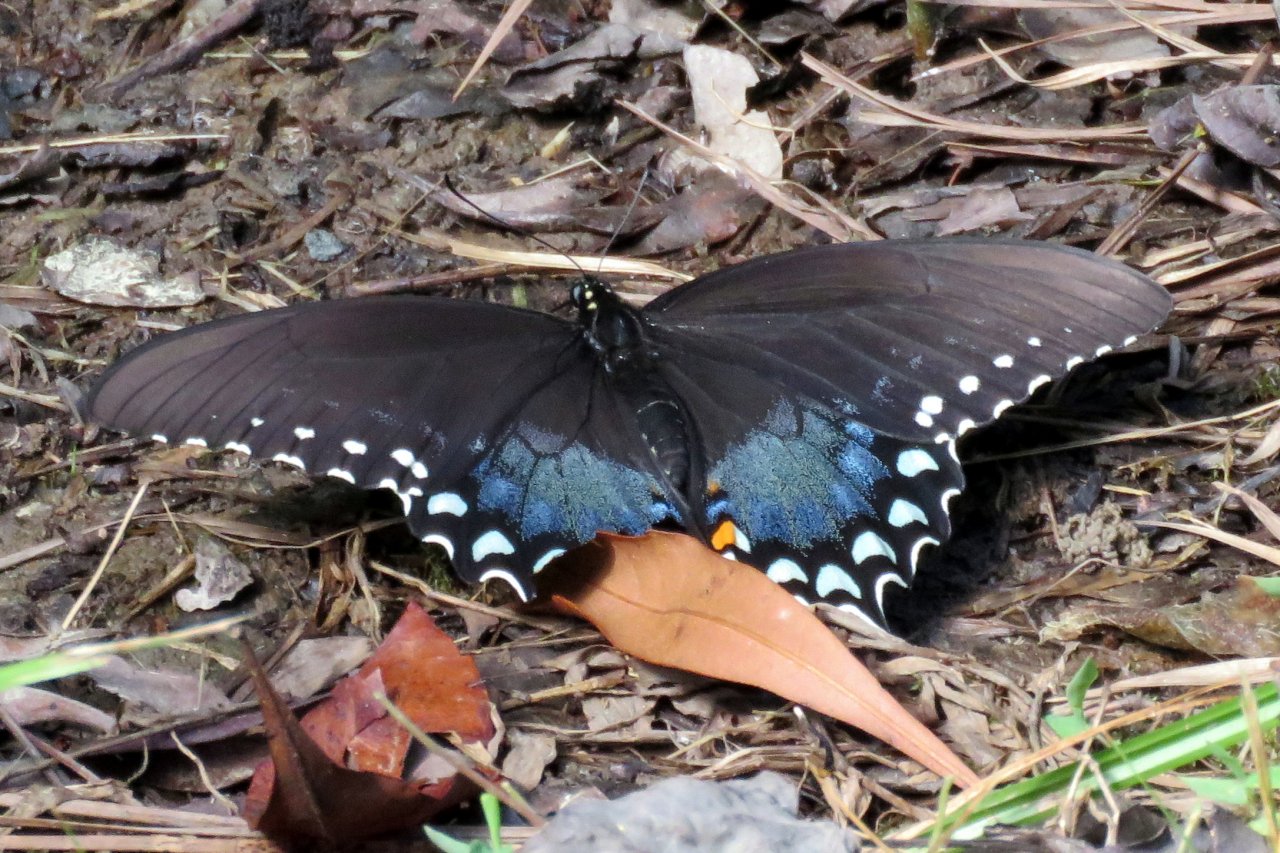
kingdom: Animalia
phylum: Arthropoda
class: Insecta
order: Lepidoptera
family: Papilionidae
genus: Pterourus
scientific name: Pterourus troilus
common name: Spicebush Swallowtail
